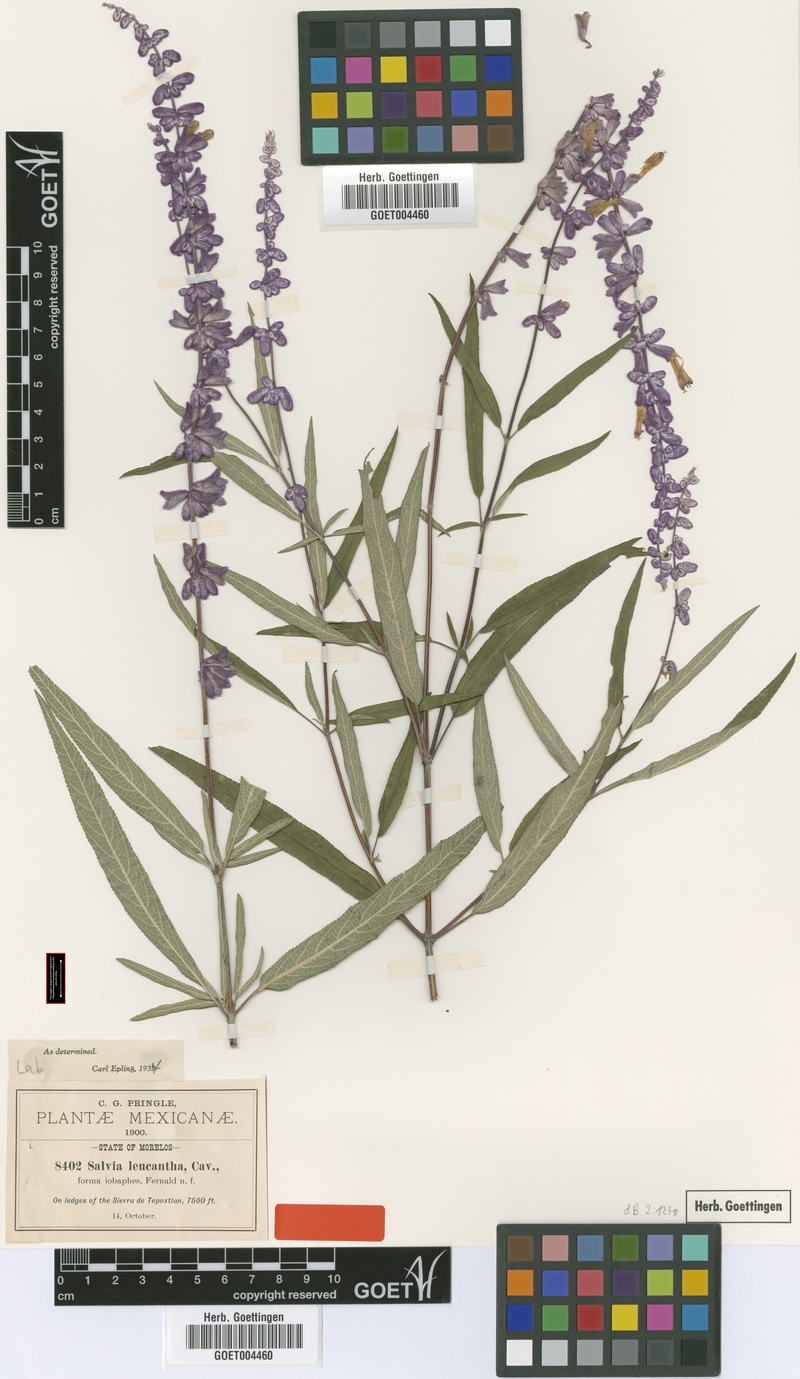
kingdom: Plantae
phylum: Tracheophyta
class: Magnoliopsida
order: Lamiales
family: Lamiaceae
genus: Salvia
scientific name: Salvia leucantha
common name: Mexican bush sage
